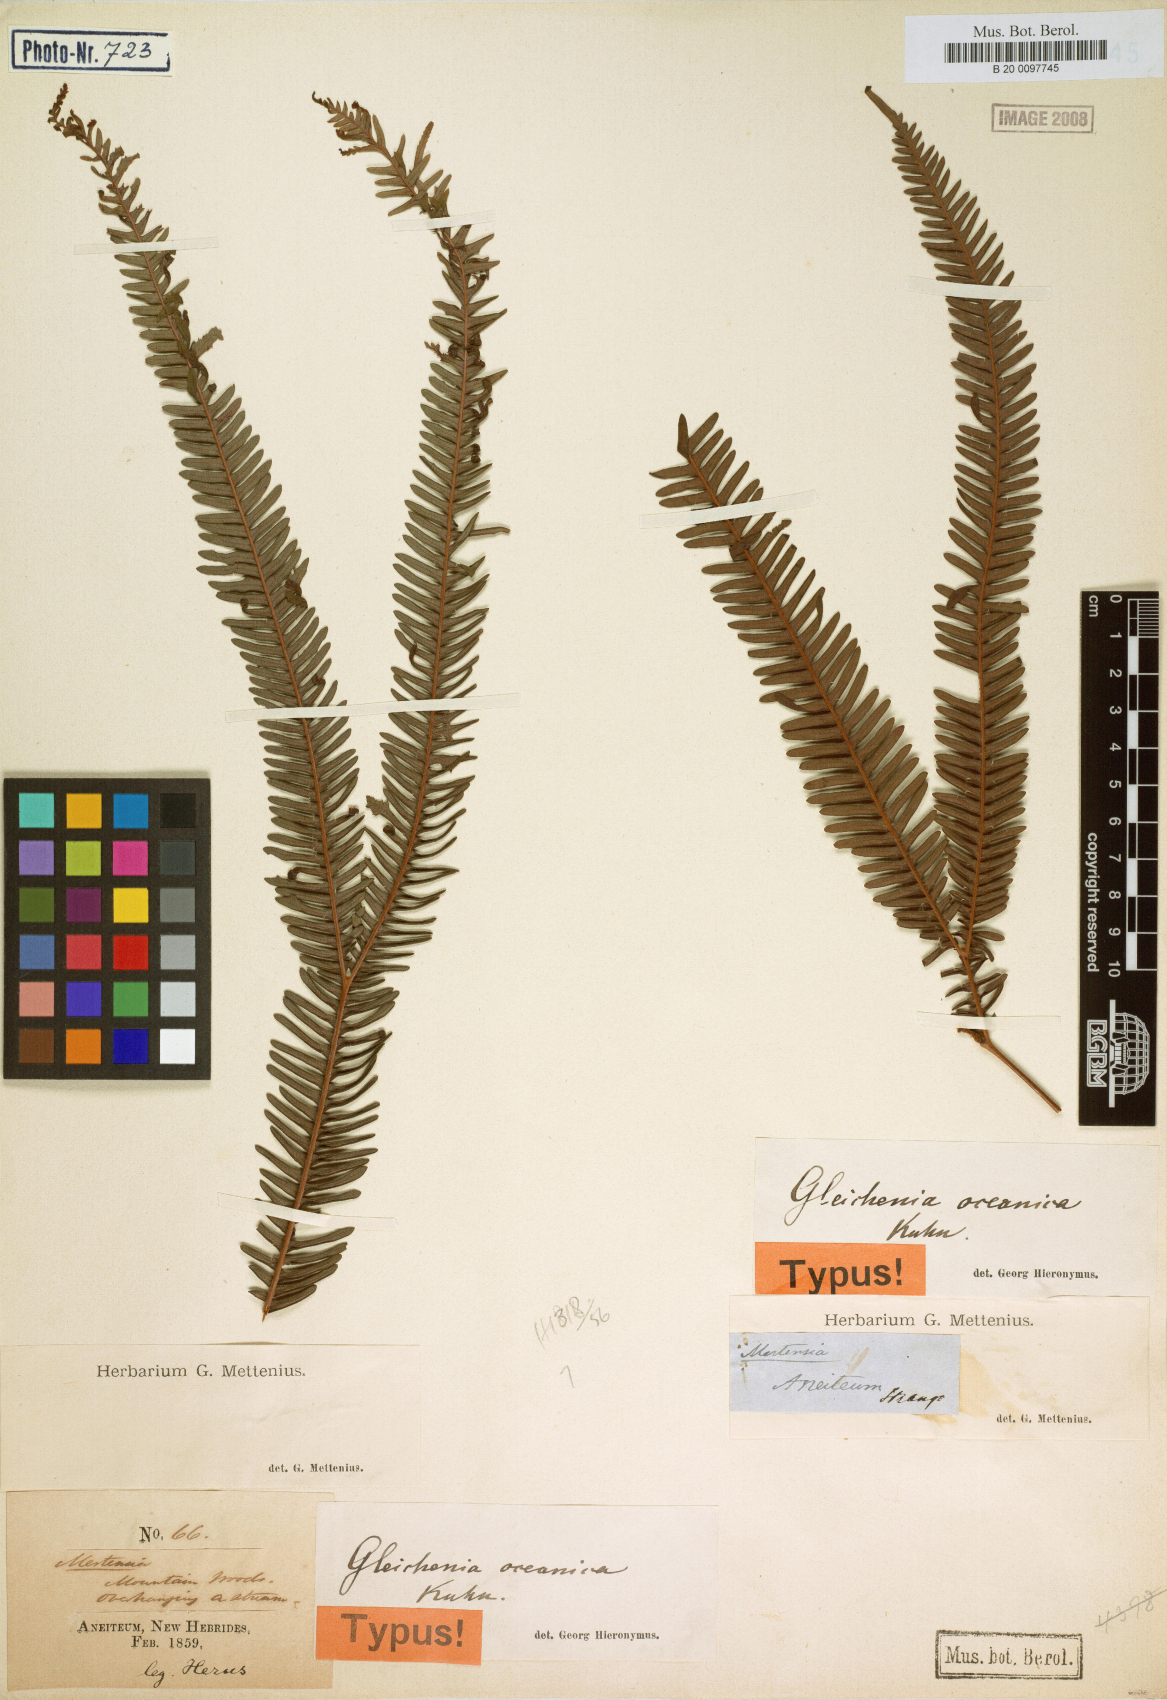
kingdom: Plantae
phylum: Tracheophyta
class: Polypodiopsida
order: Gleicheniales
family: Gleicheniaceae
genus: Sticherus
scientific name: Sticherus oceanicus
